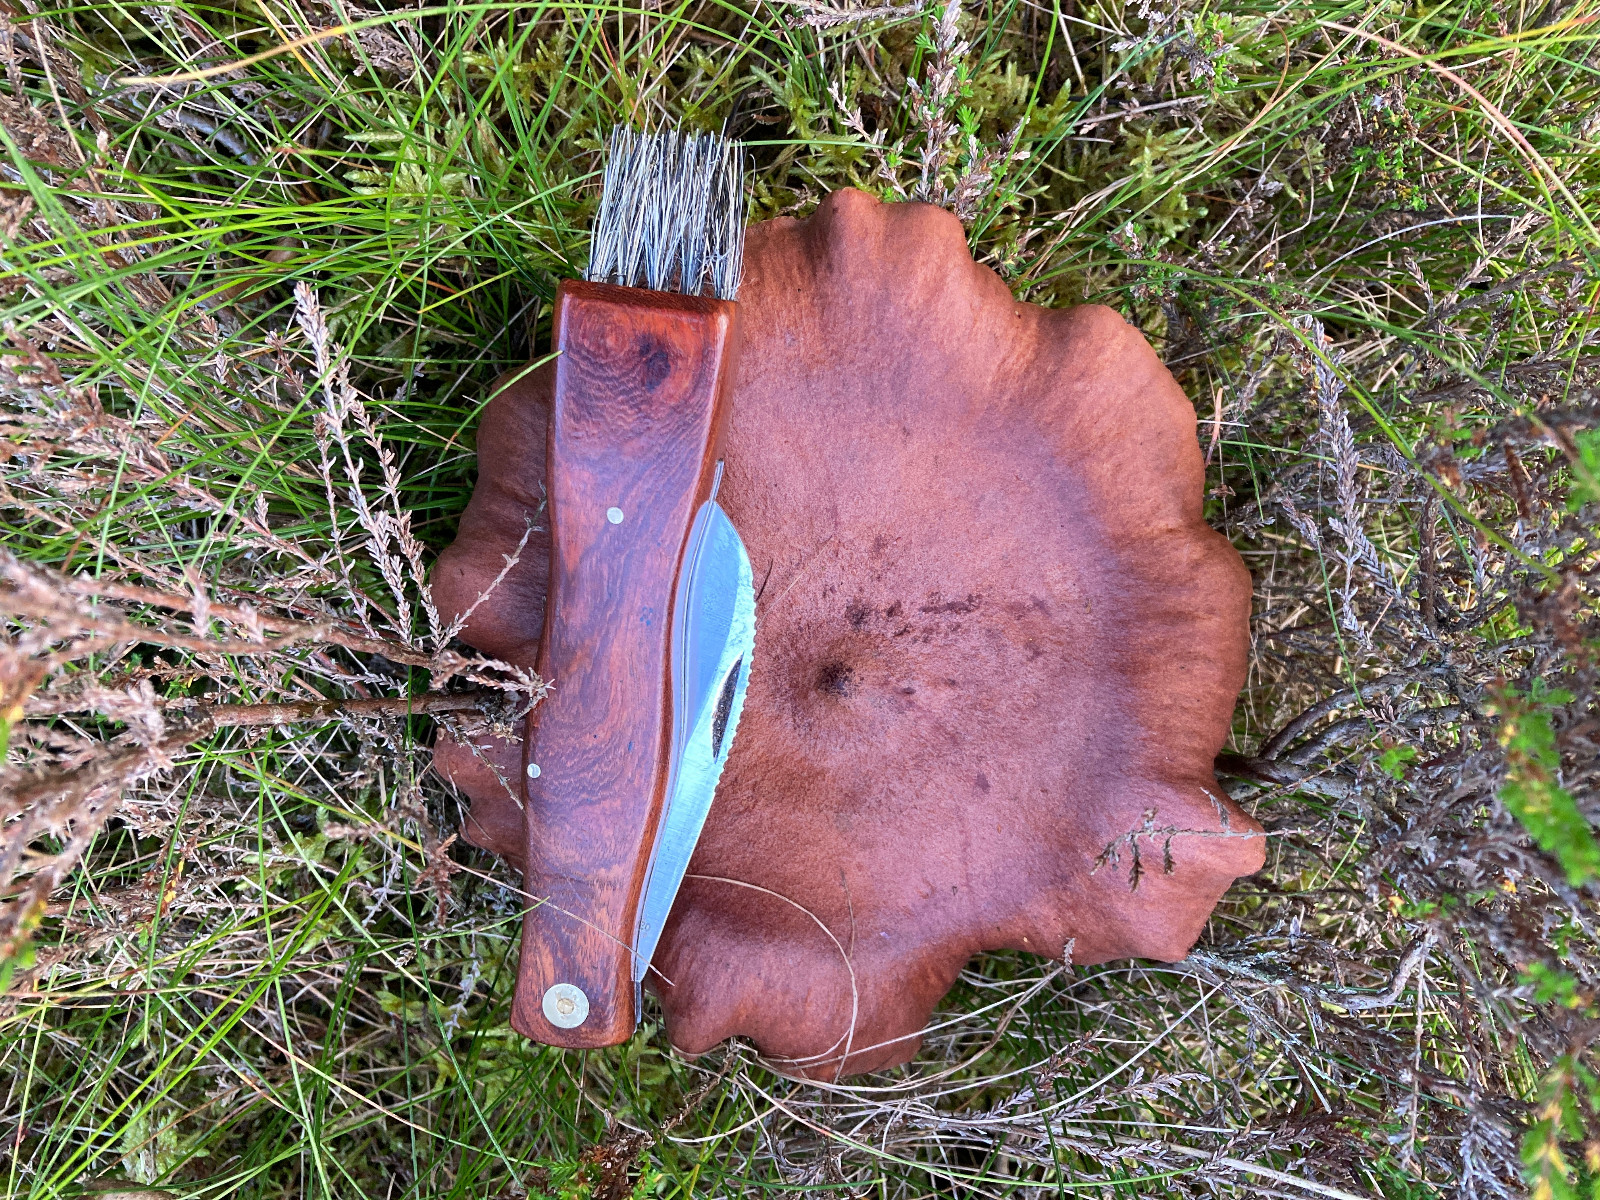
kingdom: Fungi
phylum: Basidiomycota
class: Agaricomycetes
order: Russulales
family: Russulaceae
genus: Lactarius
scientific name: Lactarius rufus
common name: rødbrun mælkehat
